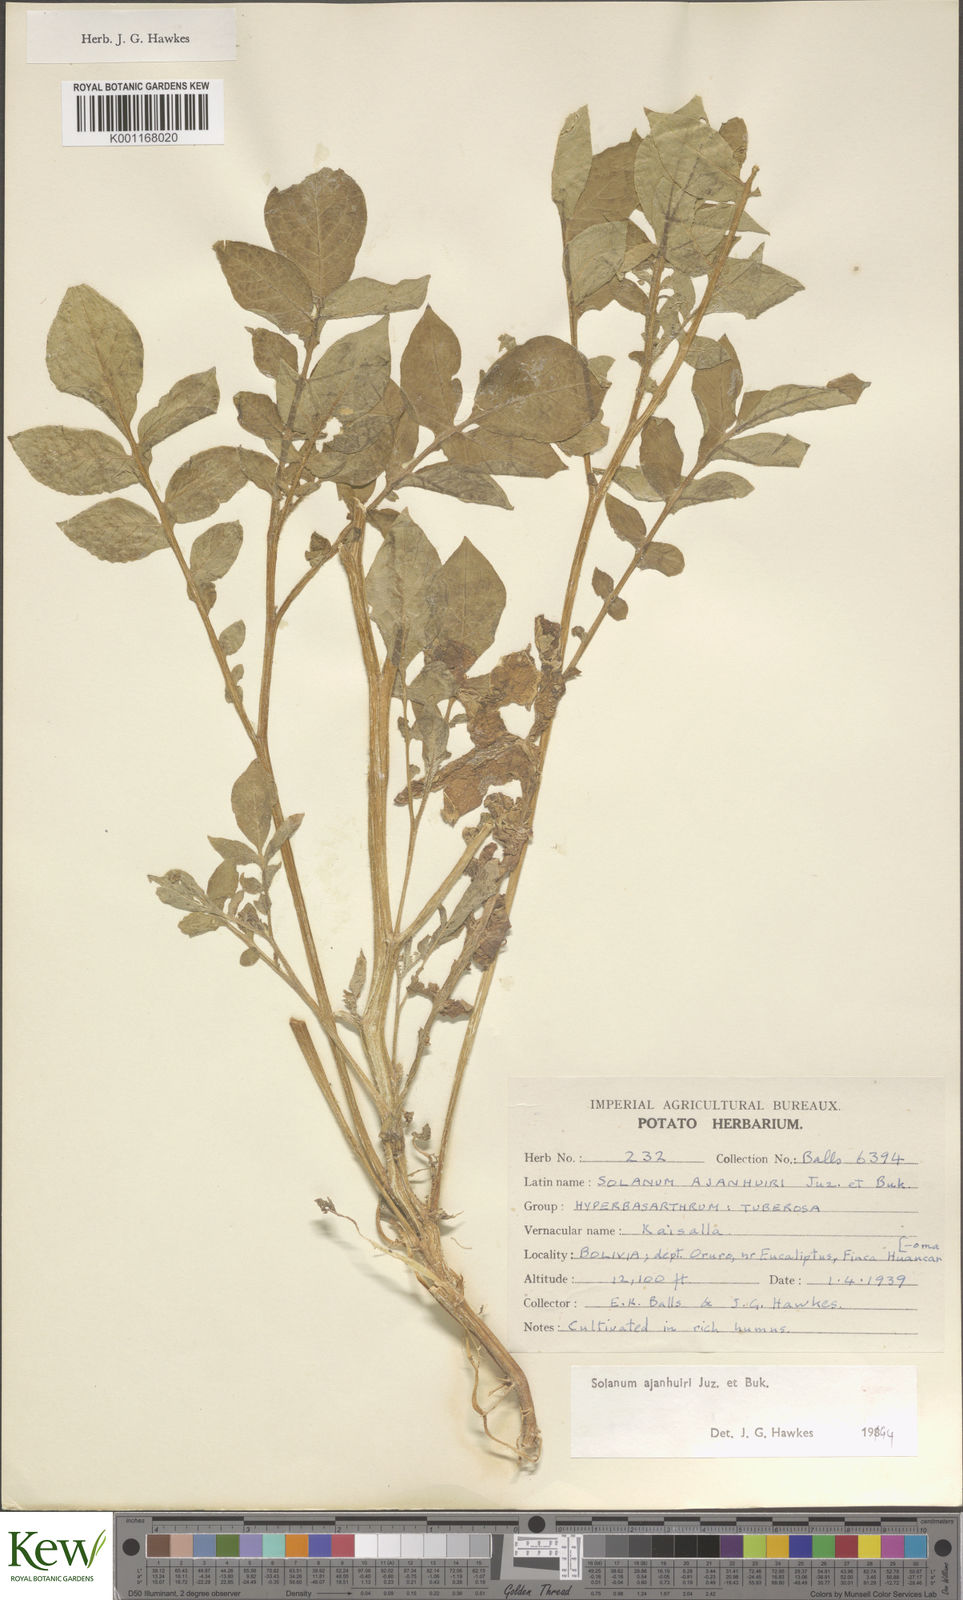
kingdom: Plantae
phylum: Tracheophyta
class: Magnoliopsida
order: Solanales
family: Solanaceae
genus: Solanum
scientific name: Solanum ajanhuiri
